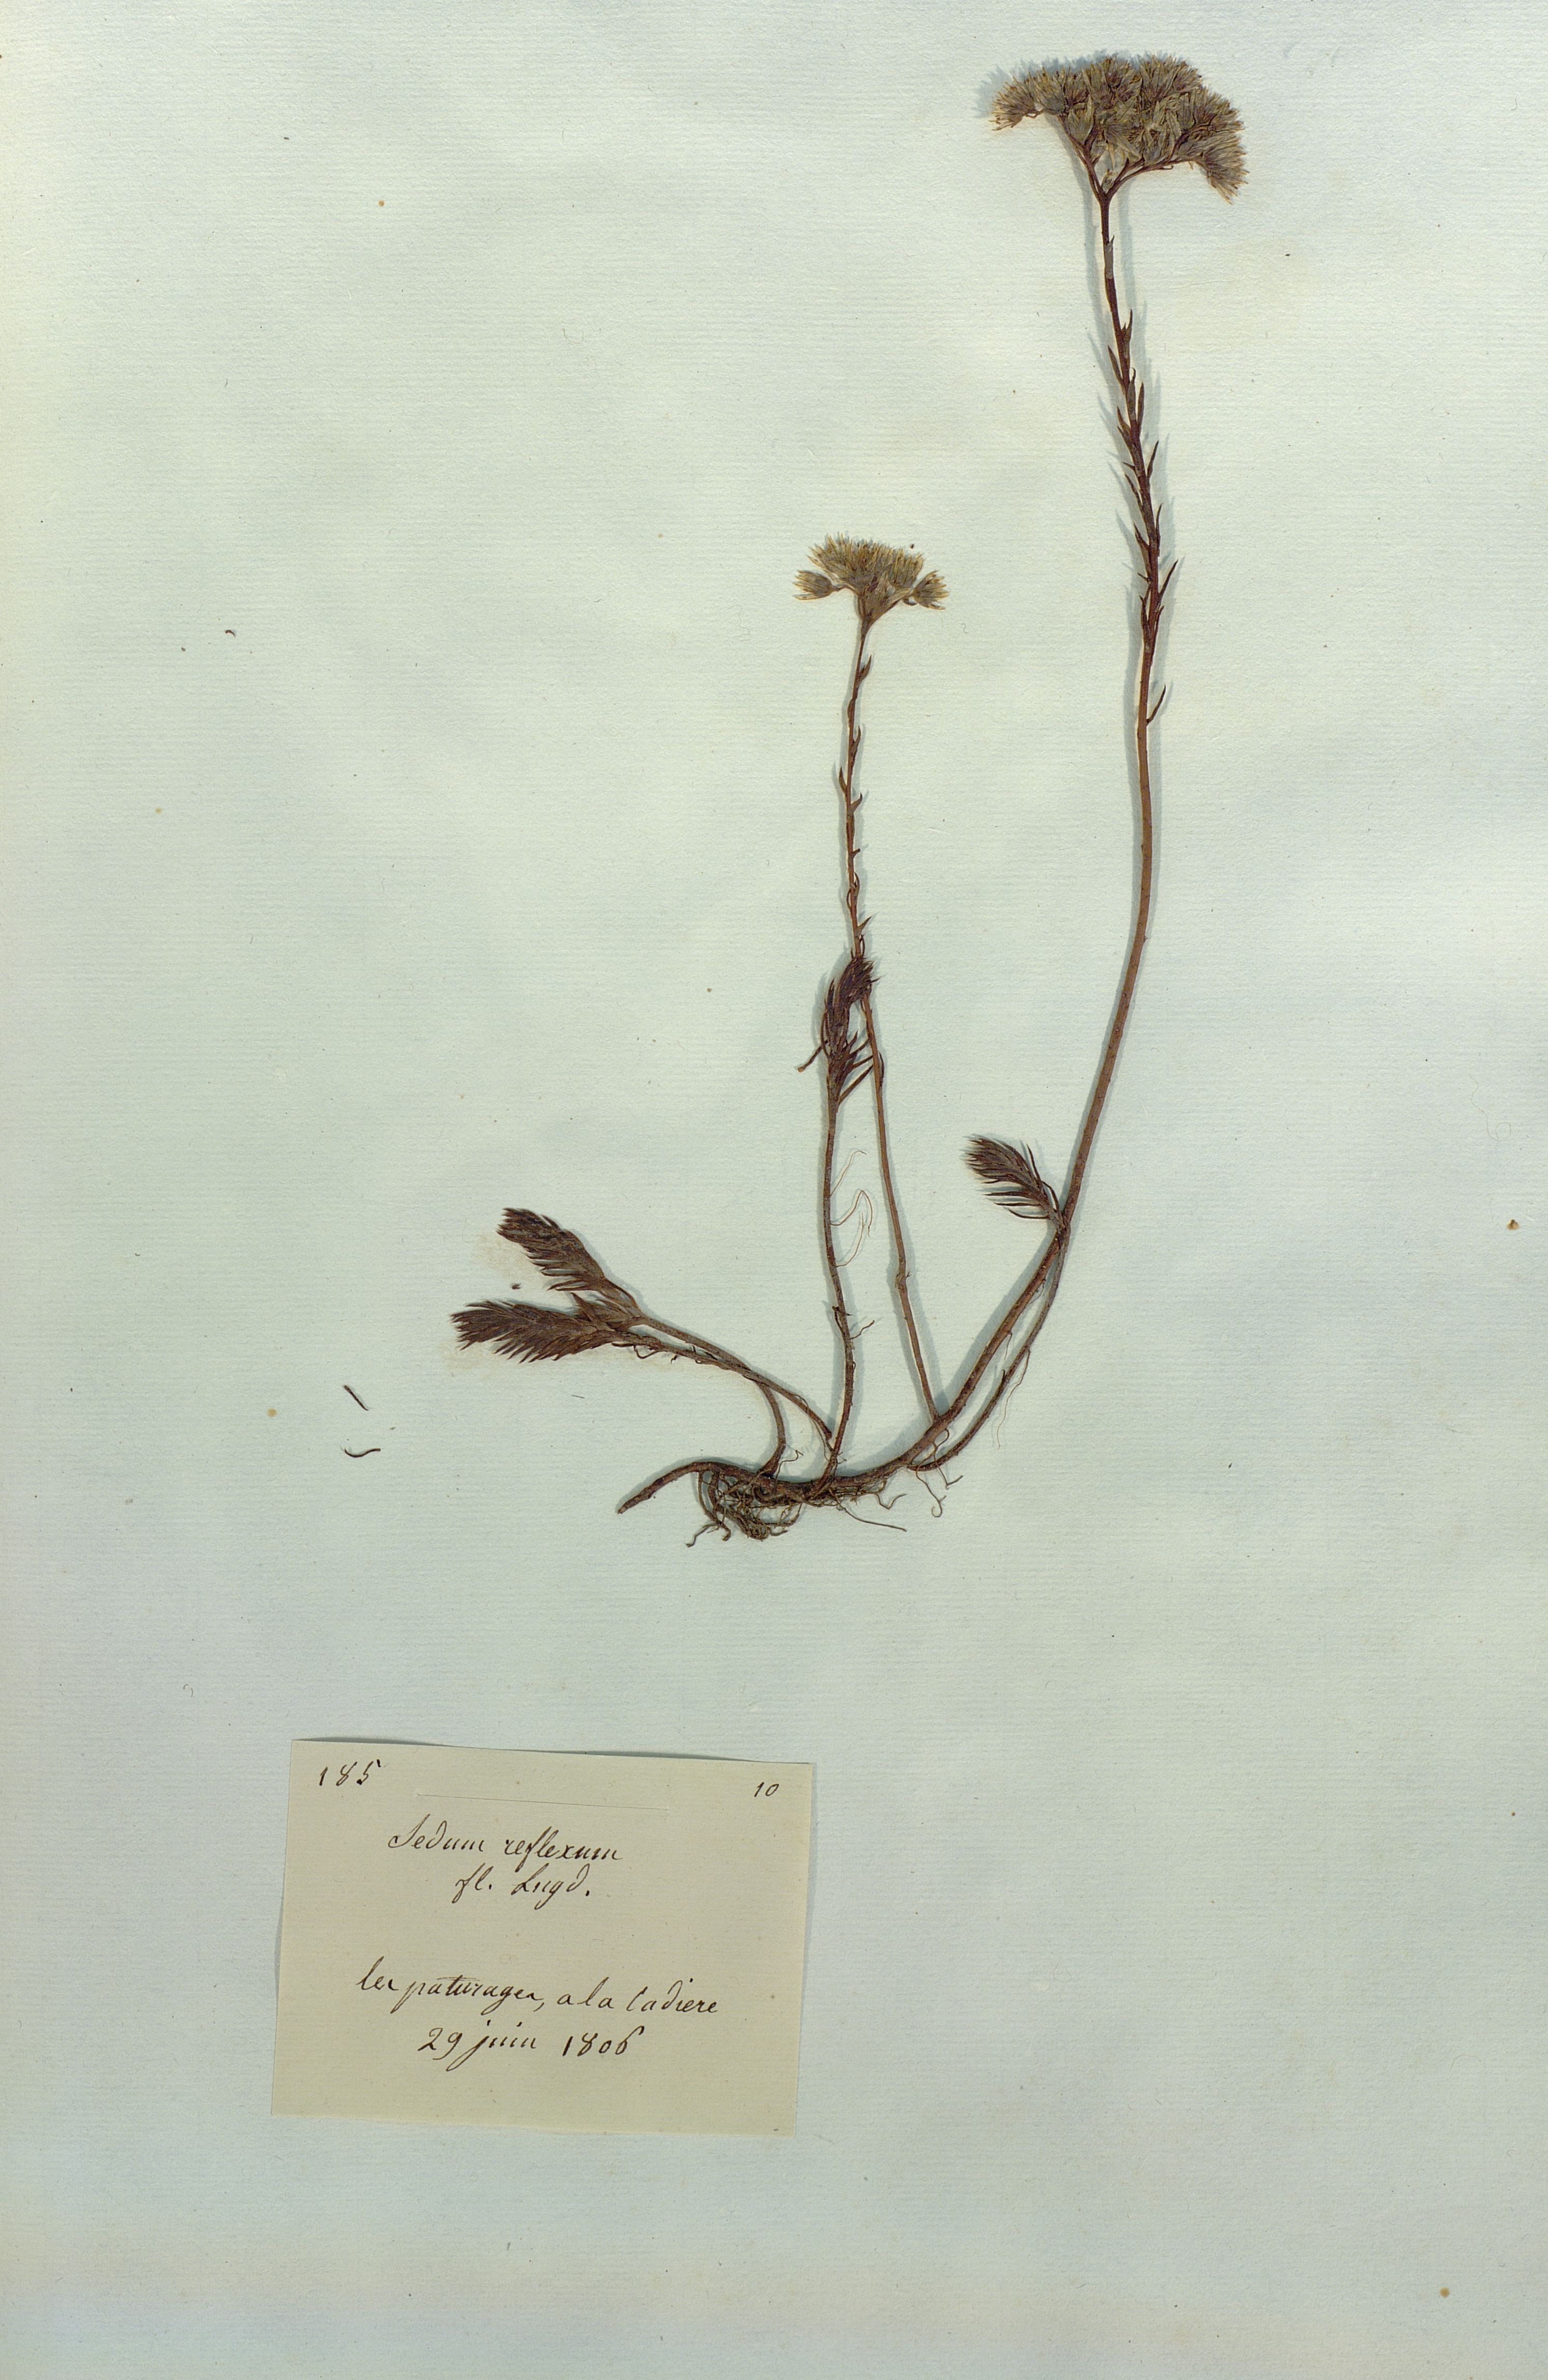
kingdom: Plantae
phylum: Tracheophyta
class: Magnoliopsida
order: Saxifragales
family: Crassulaceae
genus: Petrosedum
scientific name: Petrosedum
